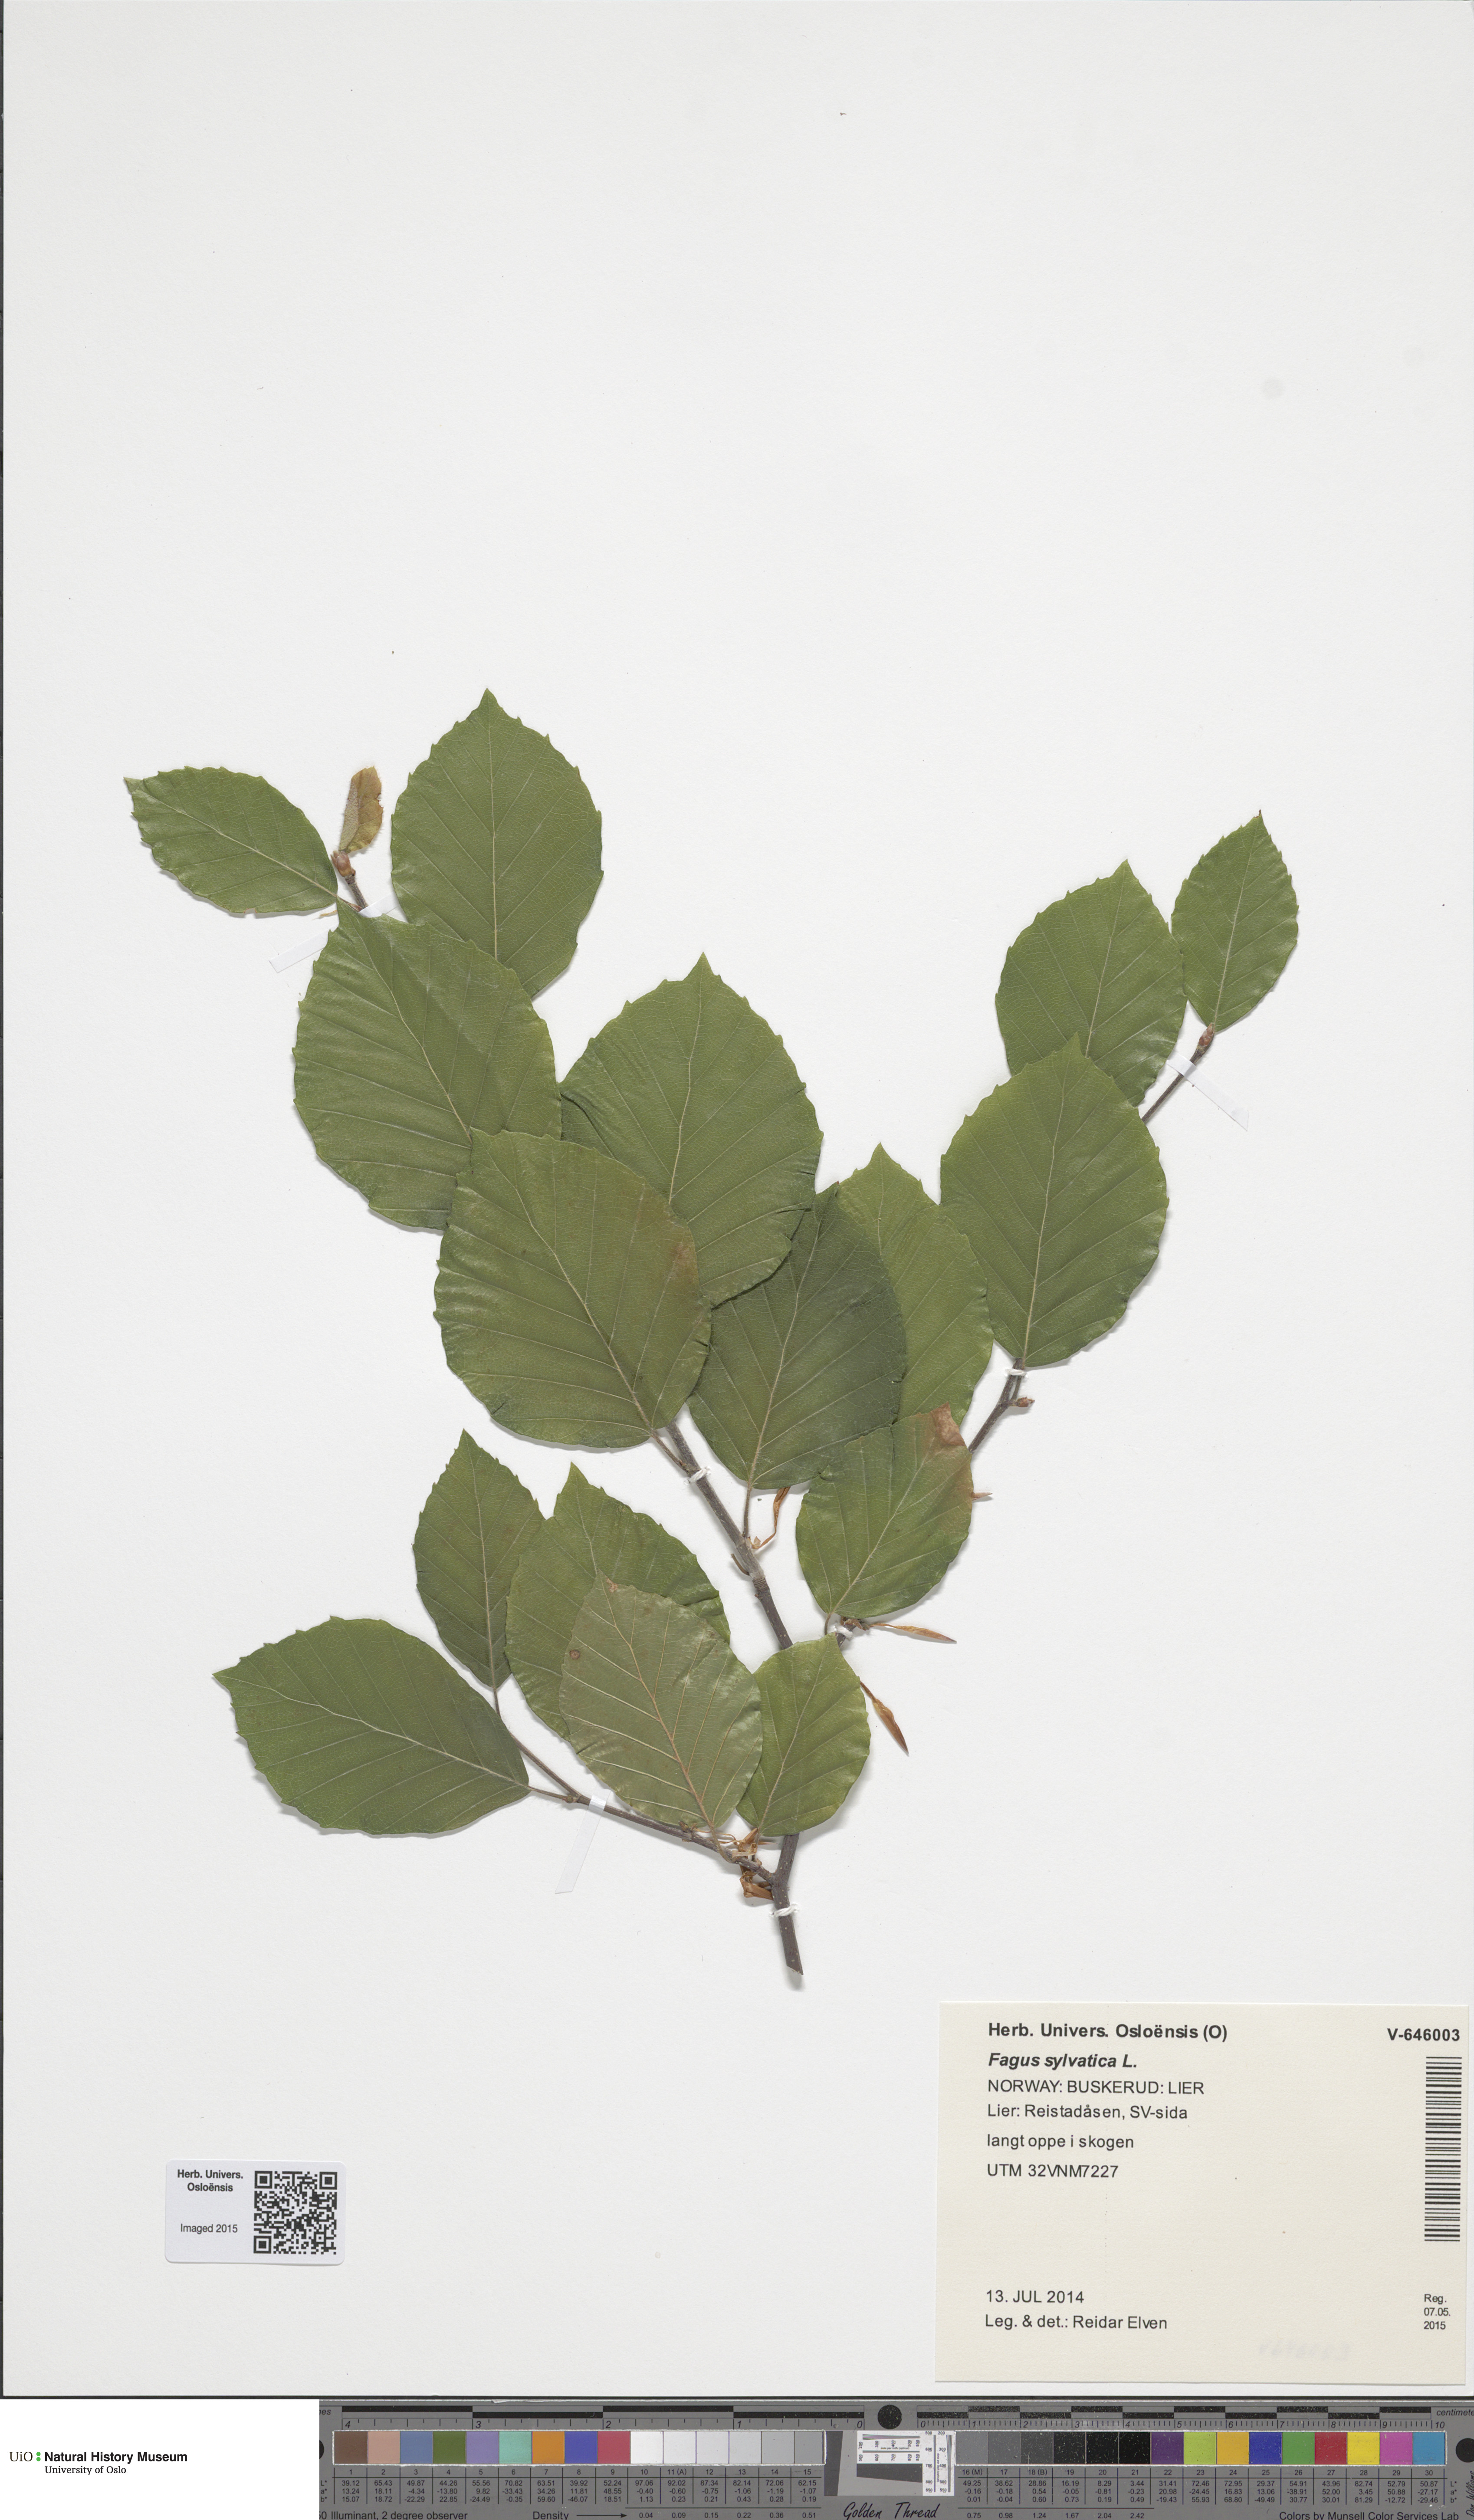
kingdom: Plantae
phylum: Tracheophyta
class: Magnoliopsida
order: Fagales
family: Fagaceae
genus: Fagus
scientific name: Fagus sylvatica
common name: Beech
